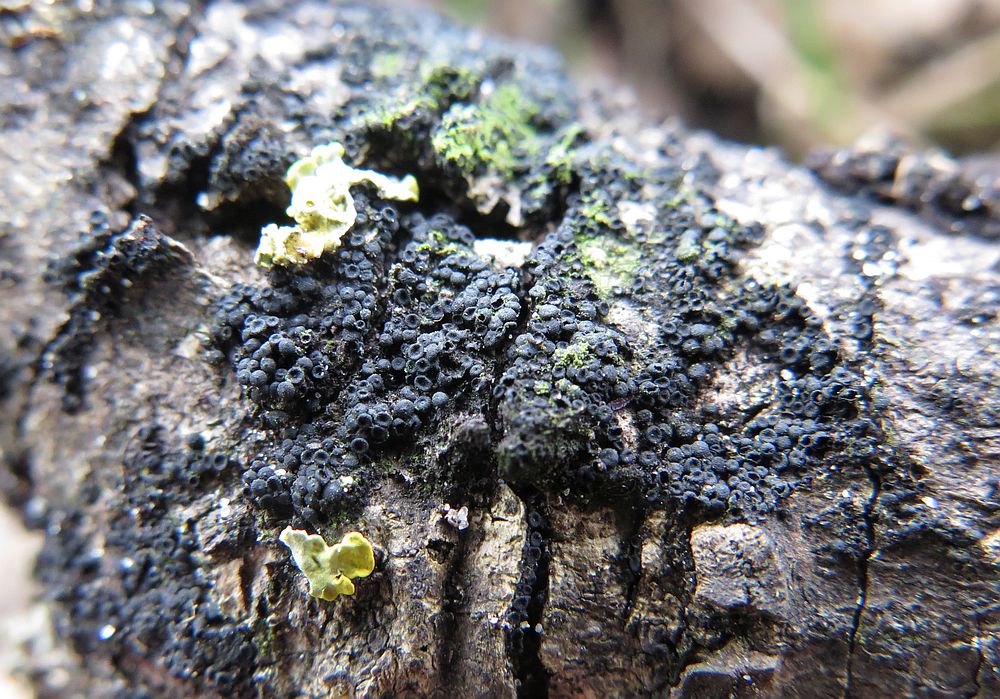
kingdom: Fungi
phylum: Ascomycota
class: Sordariomycetes
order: Coronophorales
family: Nitschkiaceae
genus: Nitschkia
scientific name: Nitschkia cupularis
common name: almindelig skålkerne
